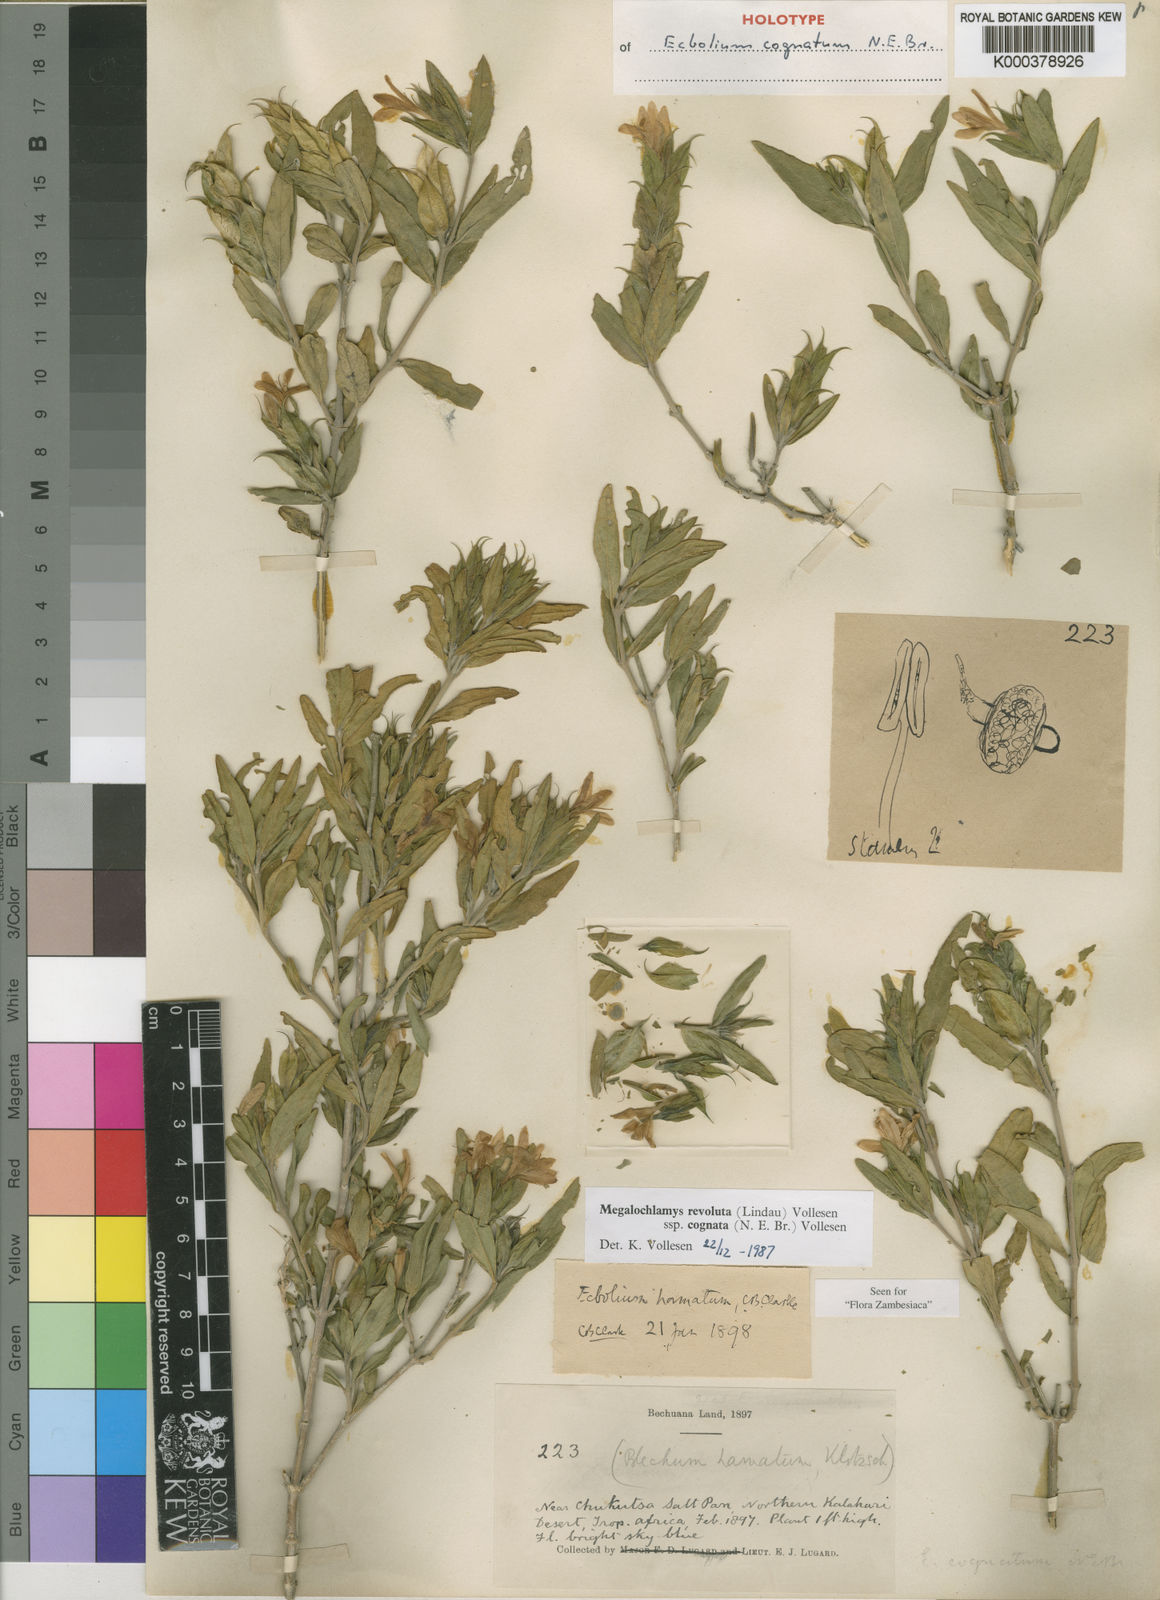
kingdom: Plantae
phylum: Tracheophyta
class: Magnoliopsida
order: Lamiales
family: Acanthaceae
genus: Megalochlamys
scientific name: Megalochlamys revoluta
